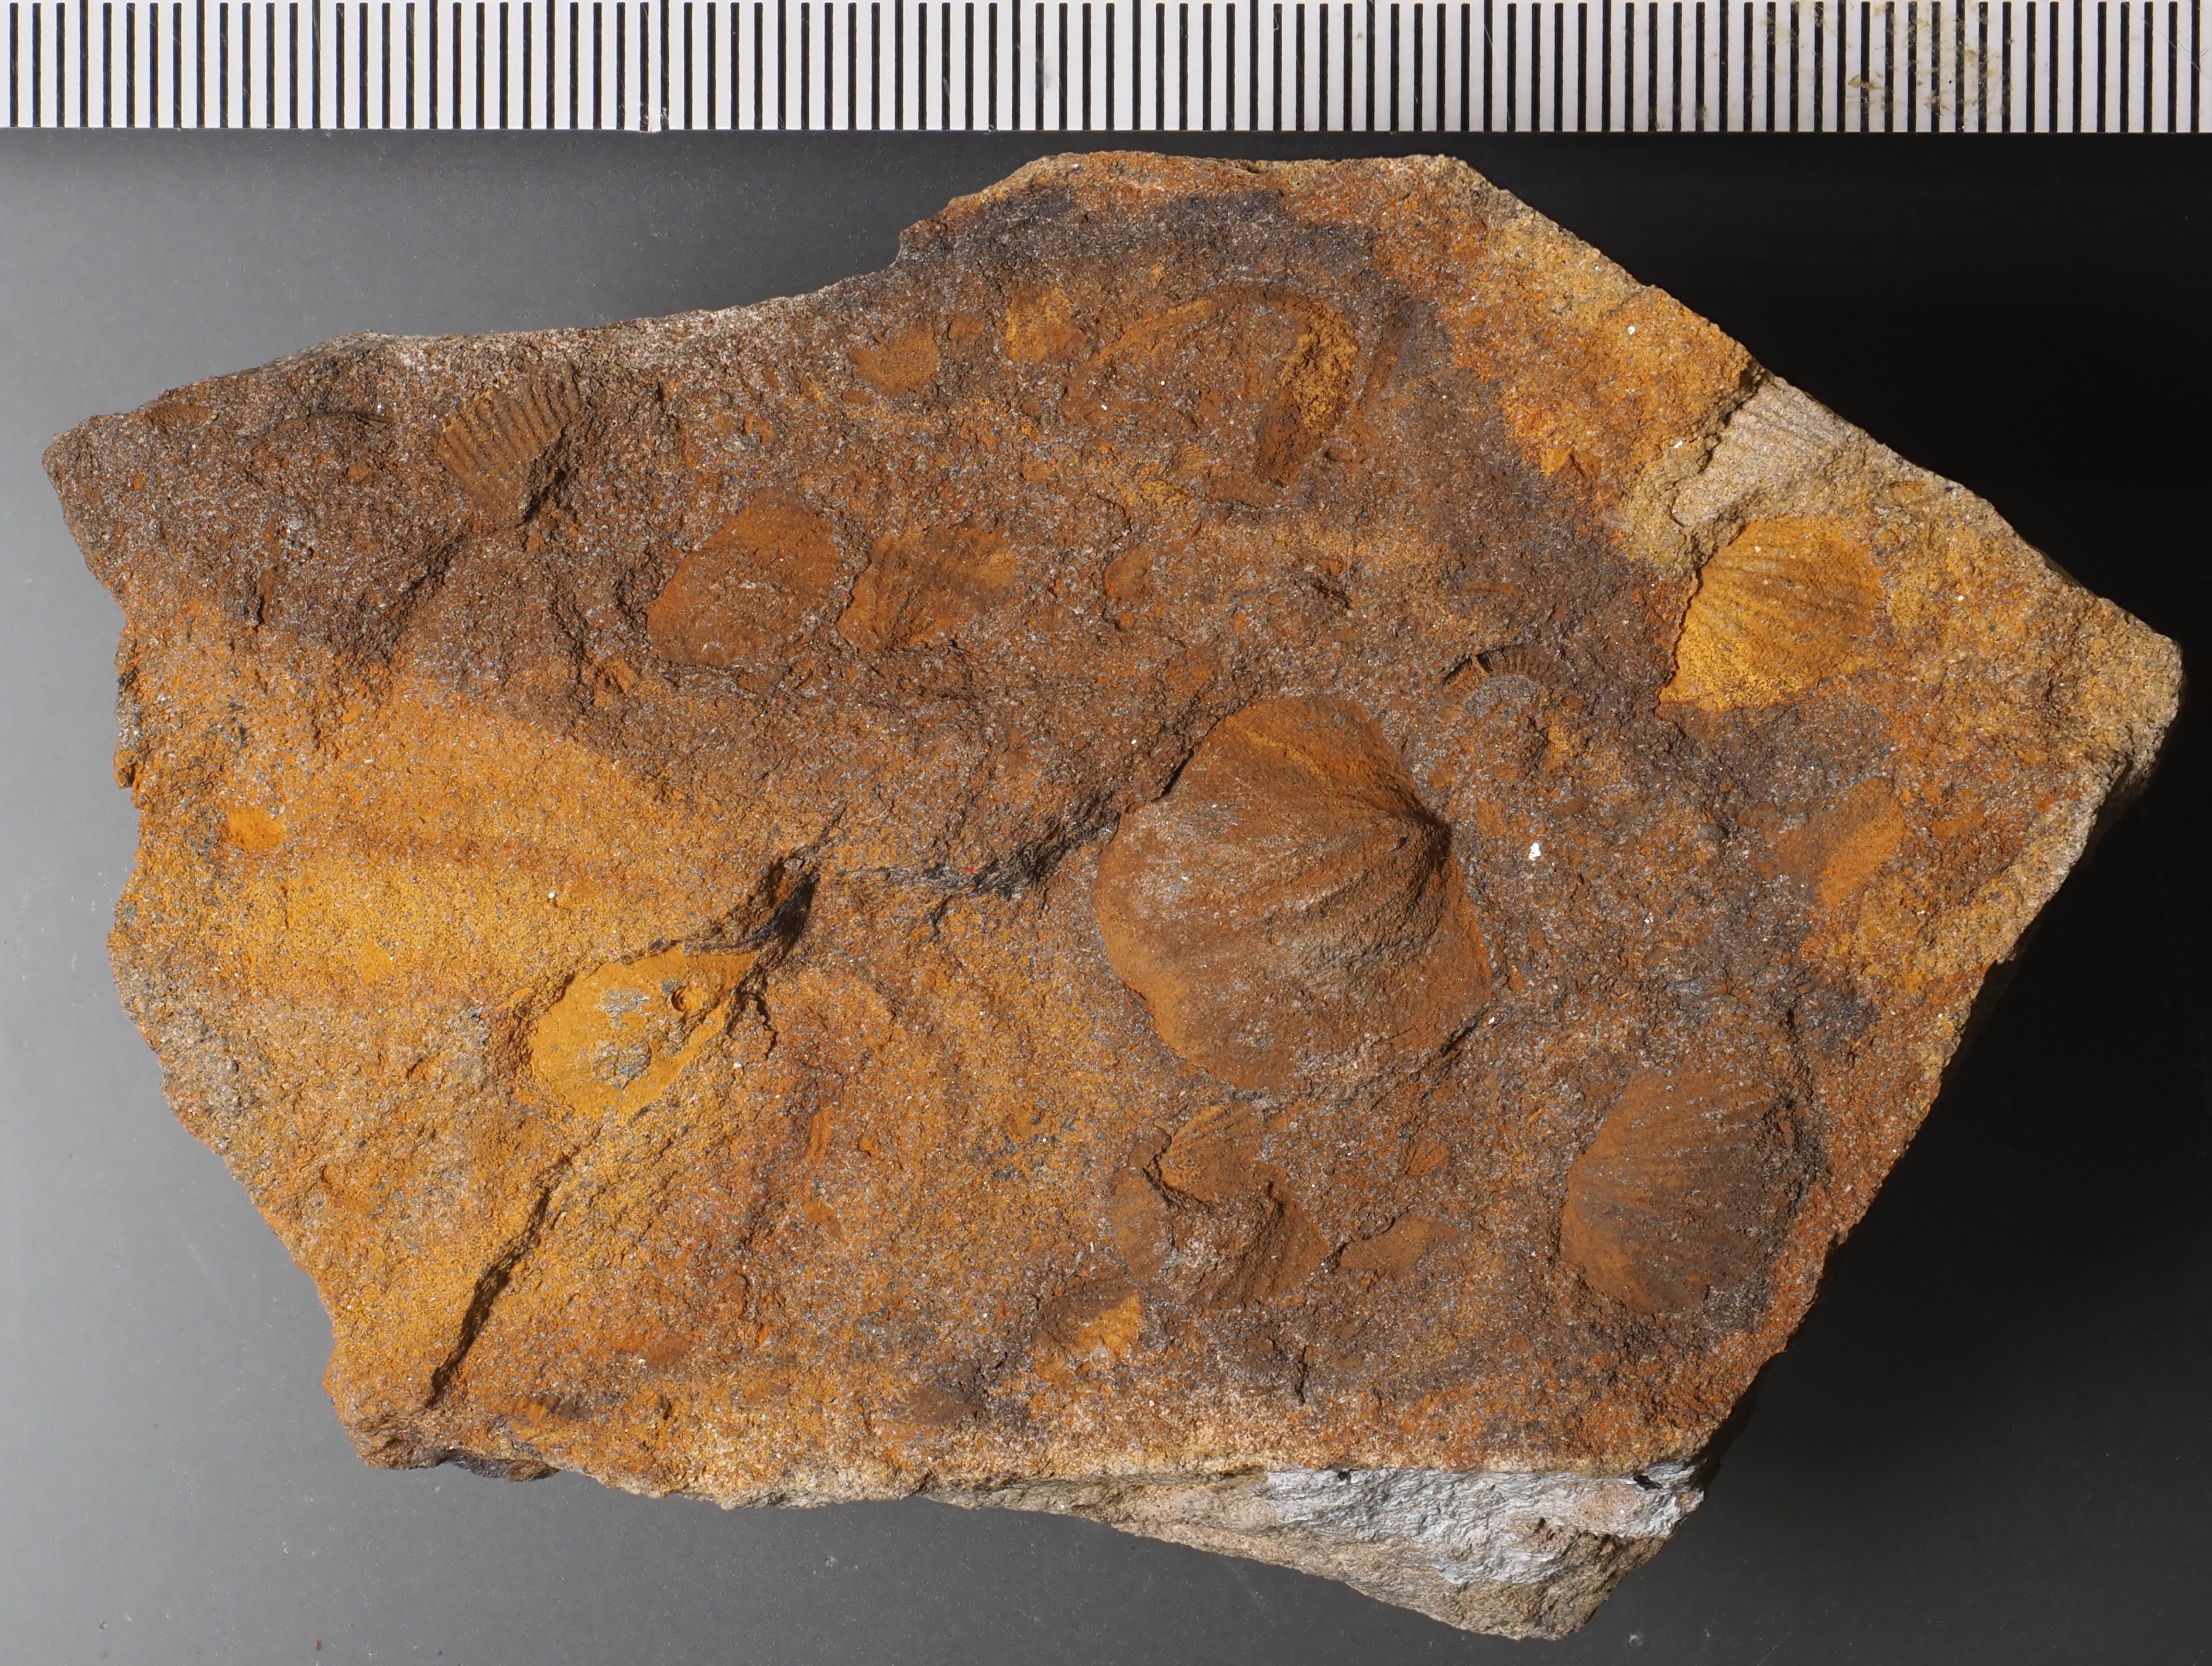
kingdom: Animalia
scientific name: Animalia
